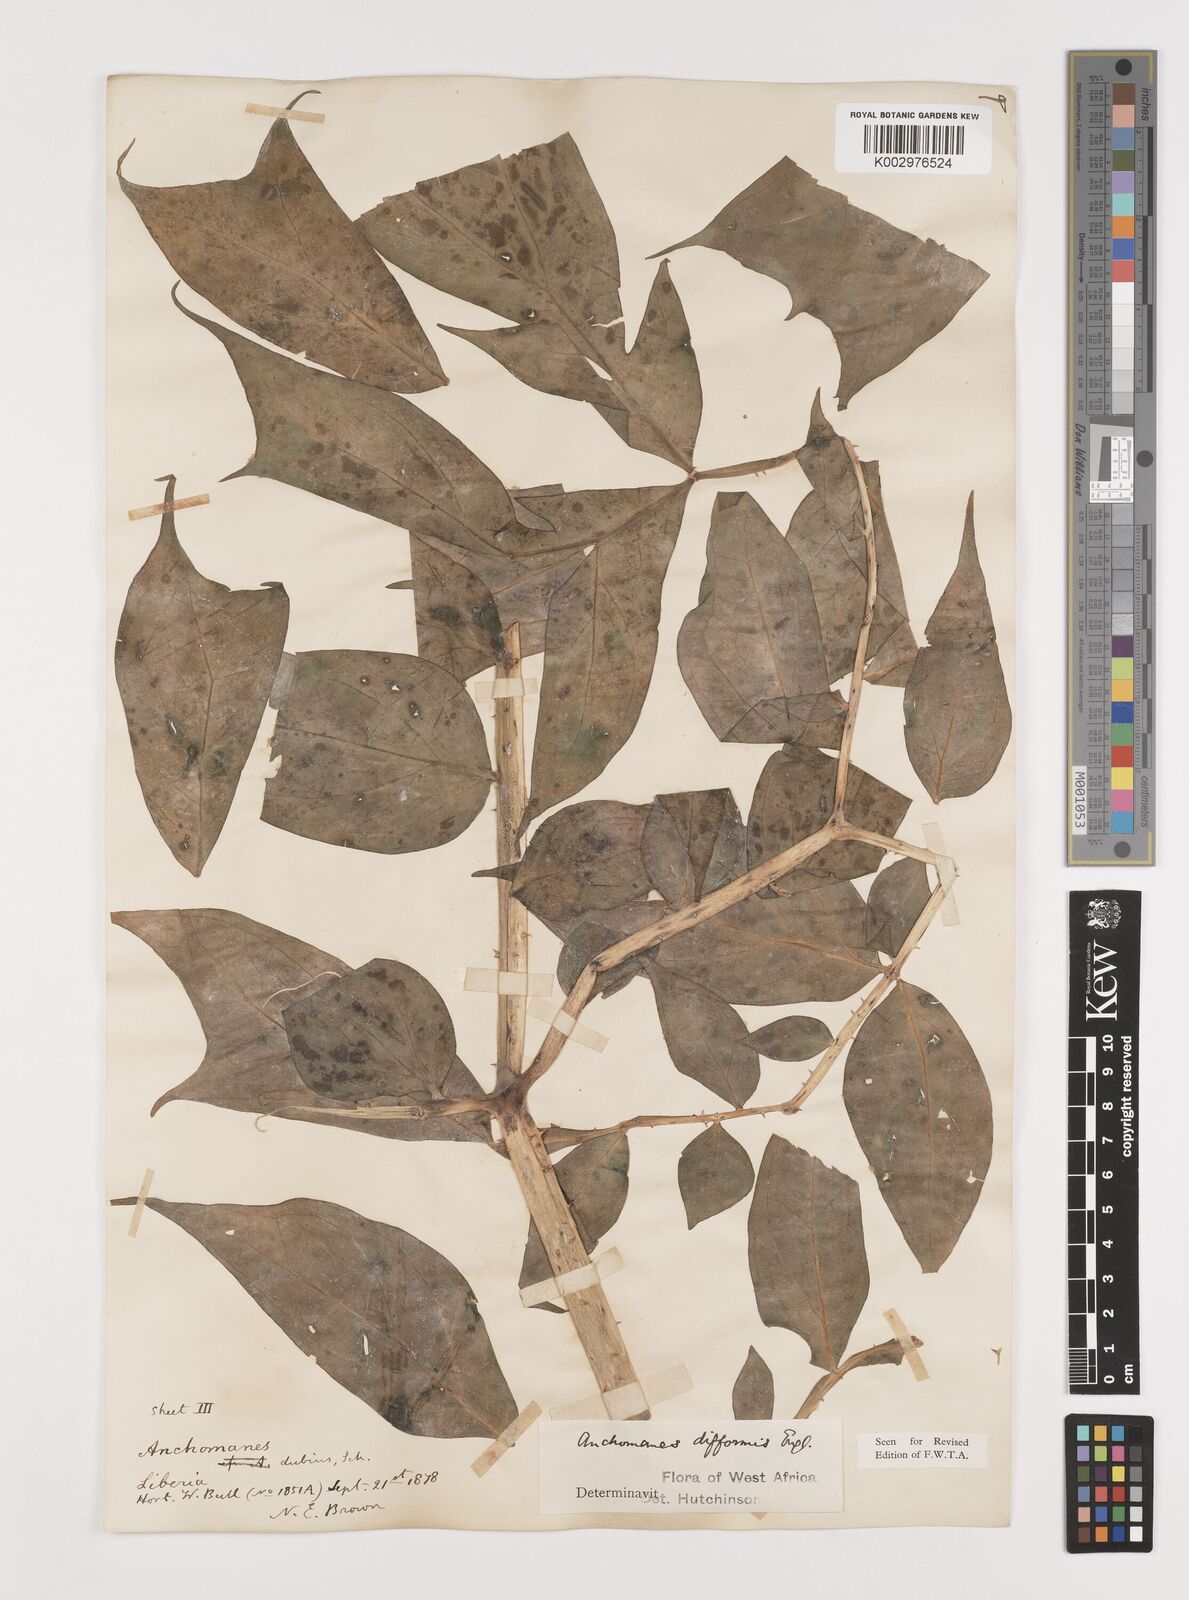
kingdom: Plantae
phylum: Tracheophyta
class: Liliopsida
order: Alismatales
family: Araceae
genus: Anchomanes
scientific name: Anchomanes difformis
